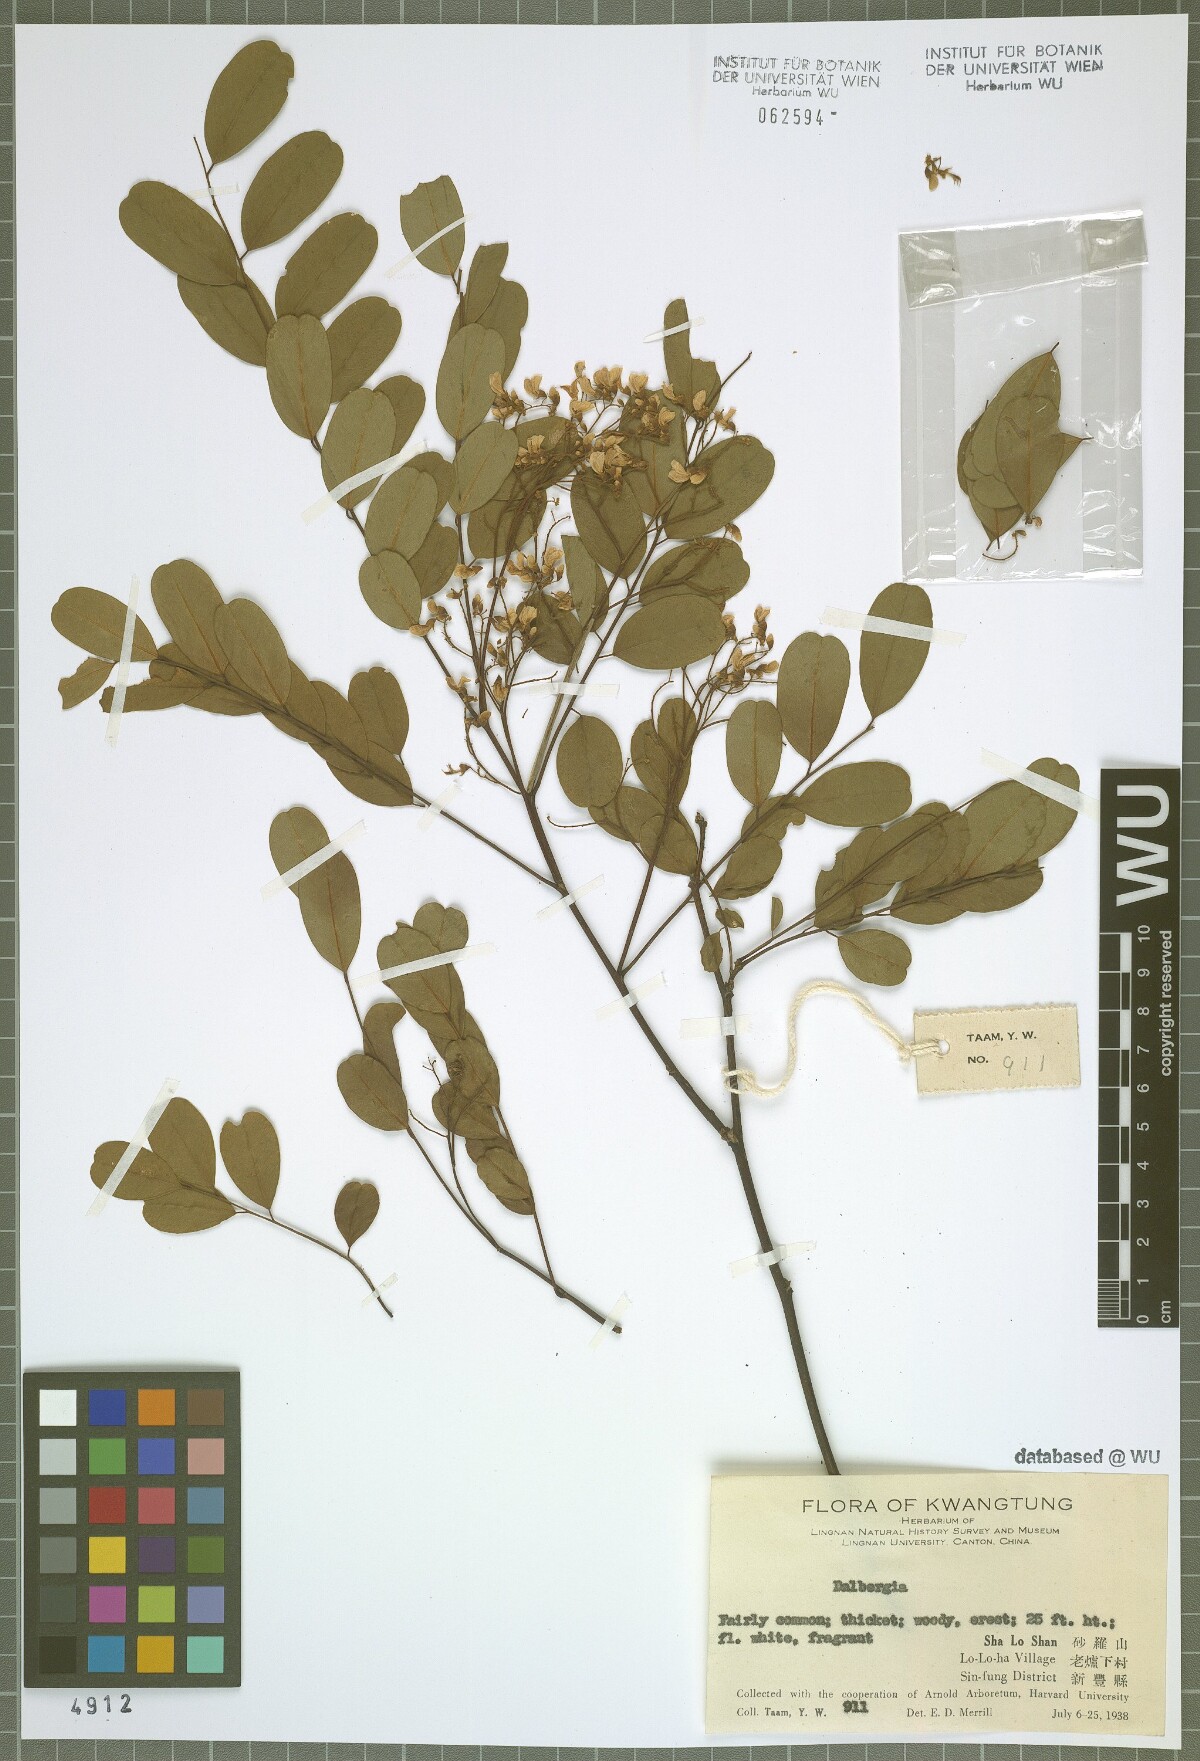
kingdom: Plantae
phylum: Tracheophyta
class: Magnoliopsida
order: Fabales
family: Fabaceae
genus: Dalbergia
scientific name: Dalbergia
